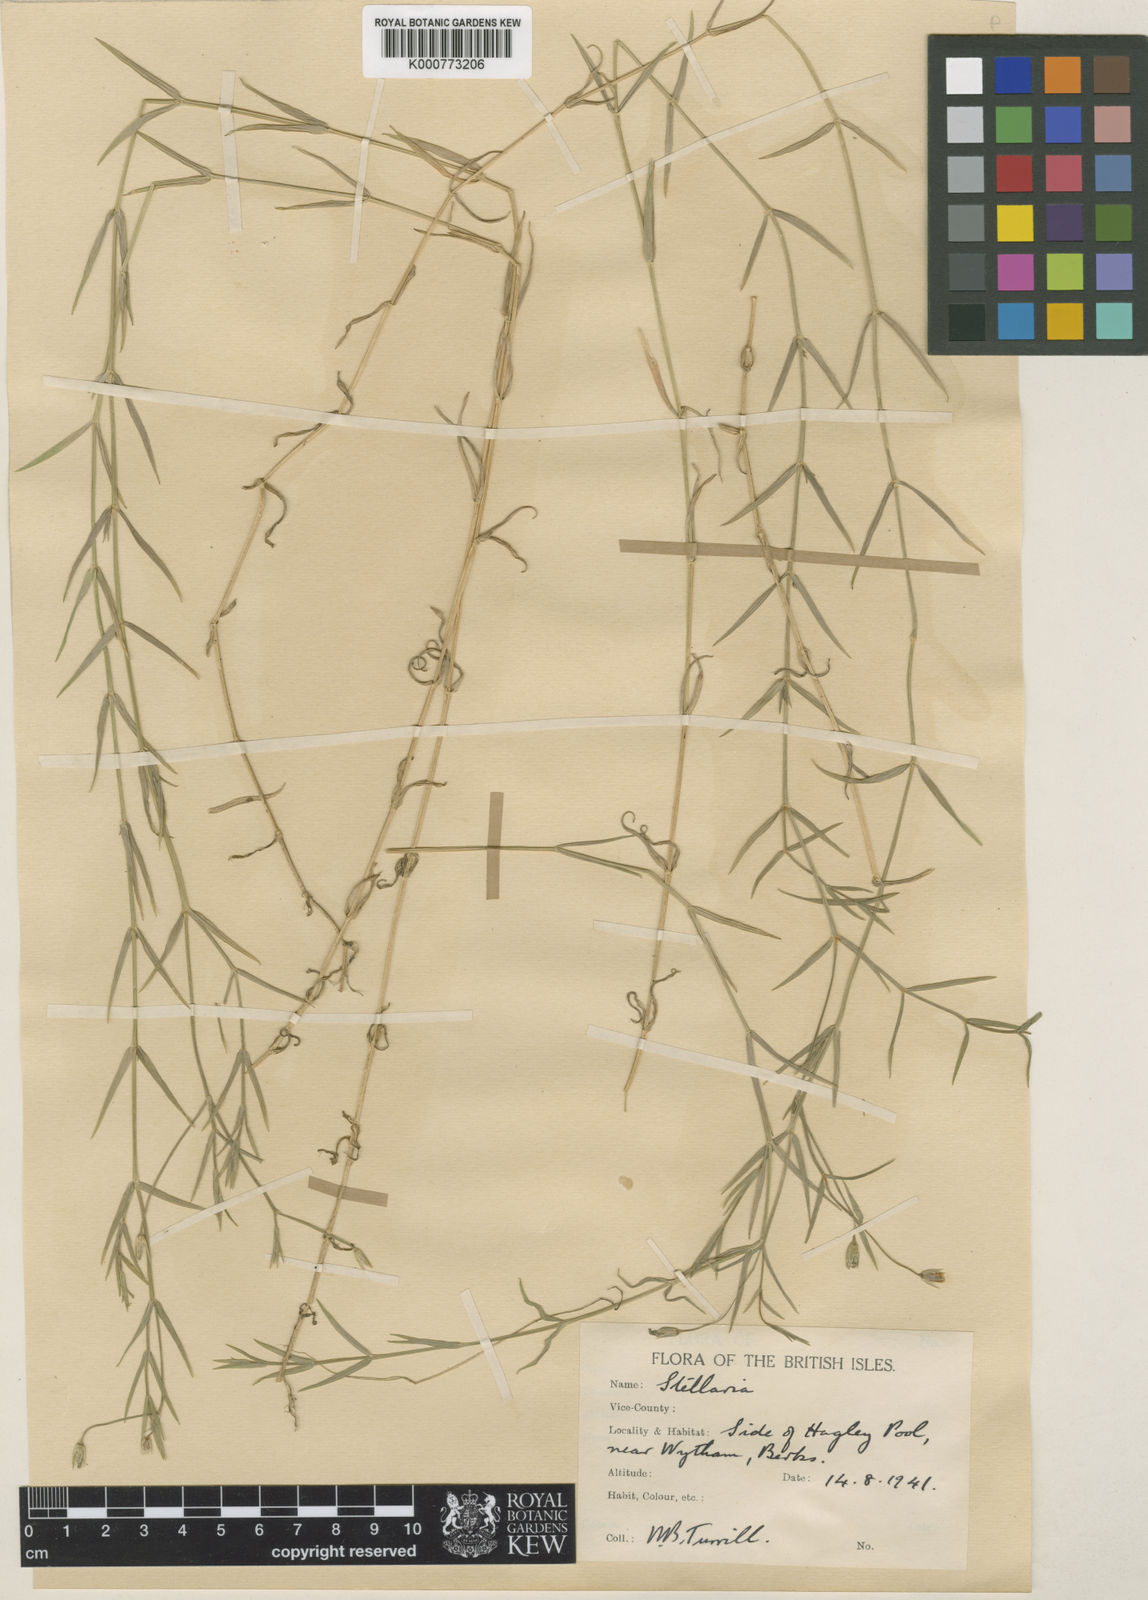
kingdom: Plantae
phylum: Tracheophyta
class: Magnoliopsida
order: Caryophyllales
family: Caryophyllaceae
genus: Stellaria
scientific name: Stellaria
